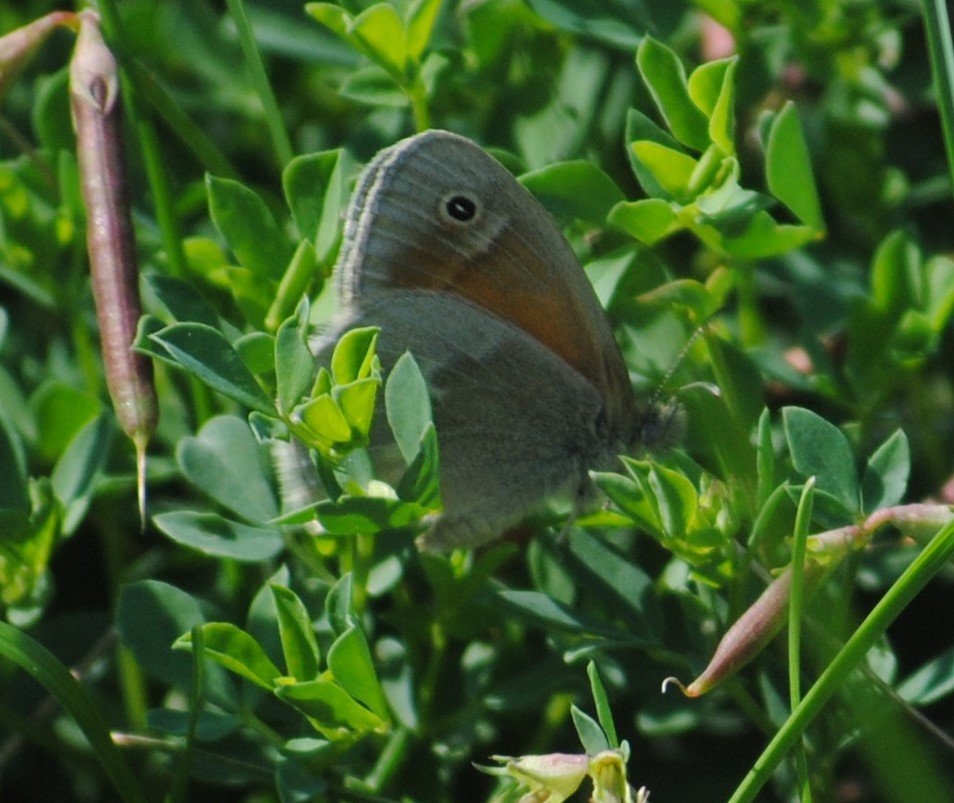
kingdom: Animalia
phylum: Arthropoda
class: Insecta
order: Lepidoptera
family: Nymphalidae
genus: Coenonympha
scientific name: Coenonympha tullia
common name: Large Heath
